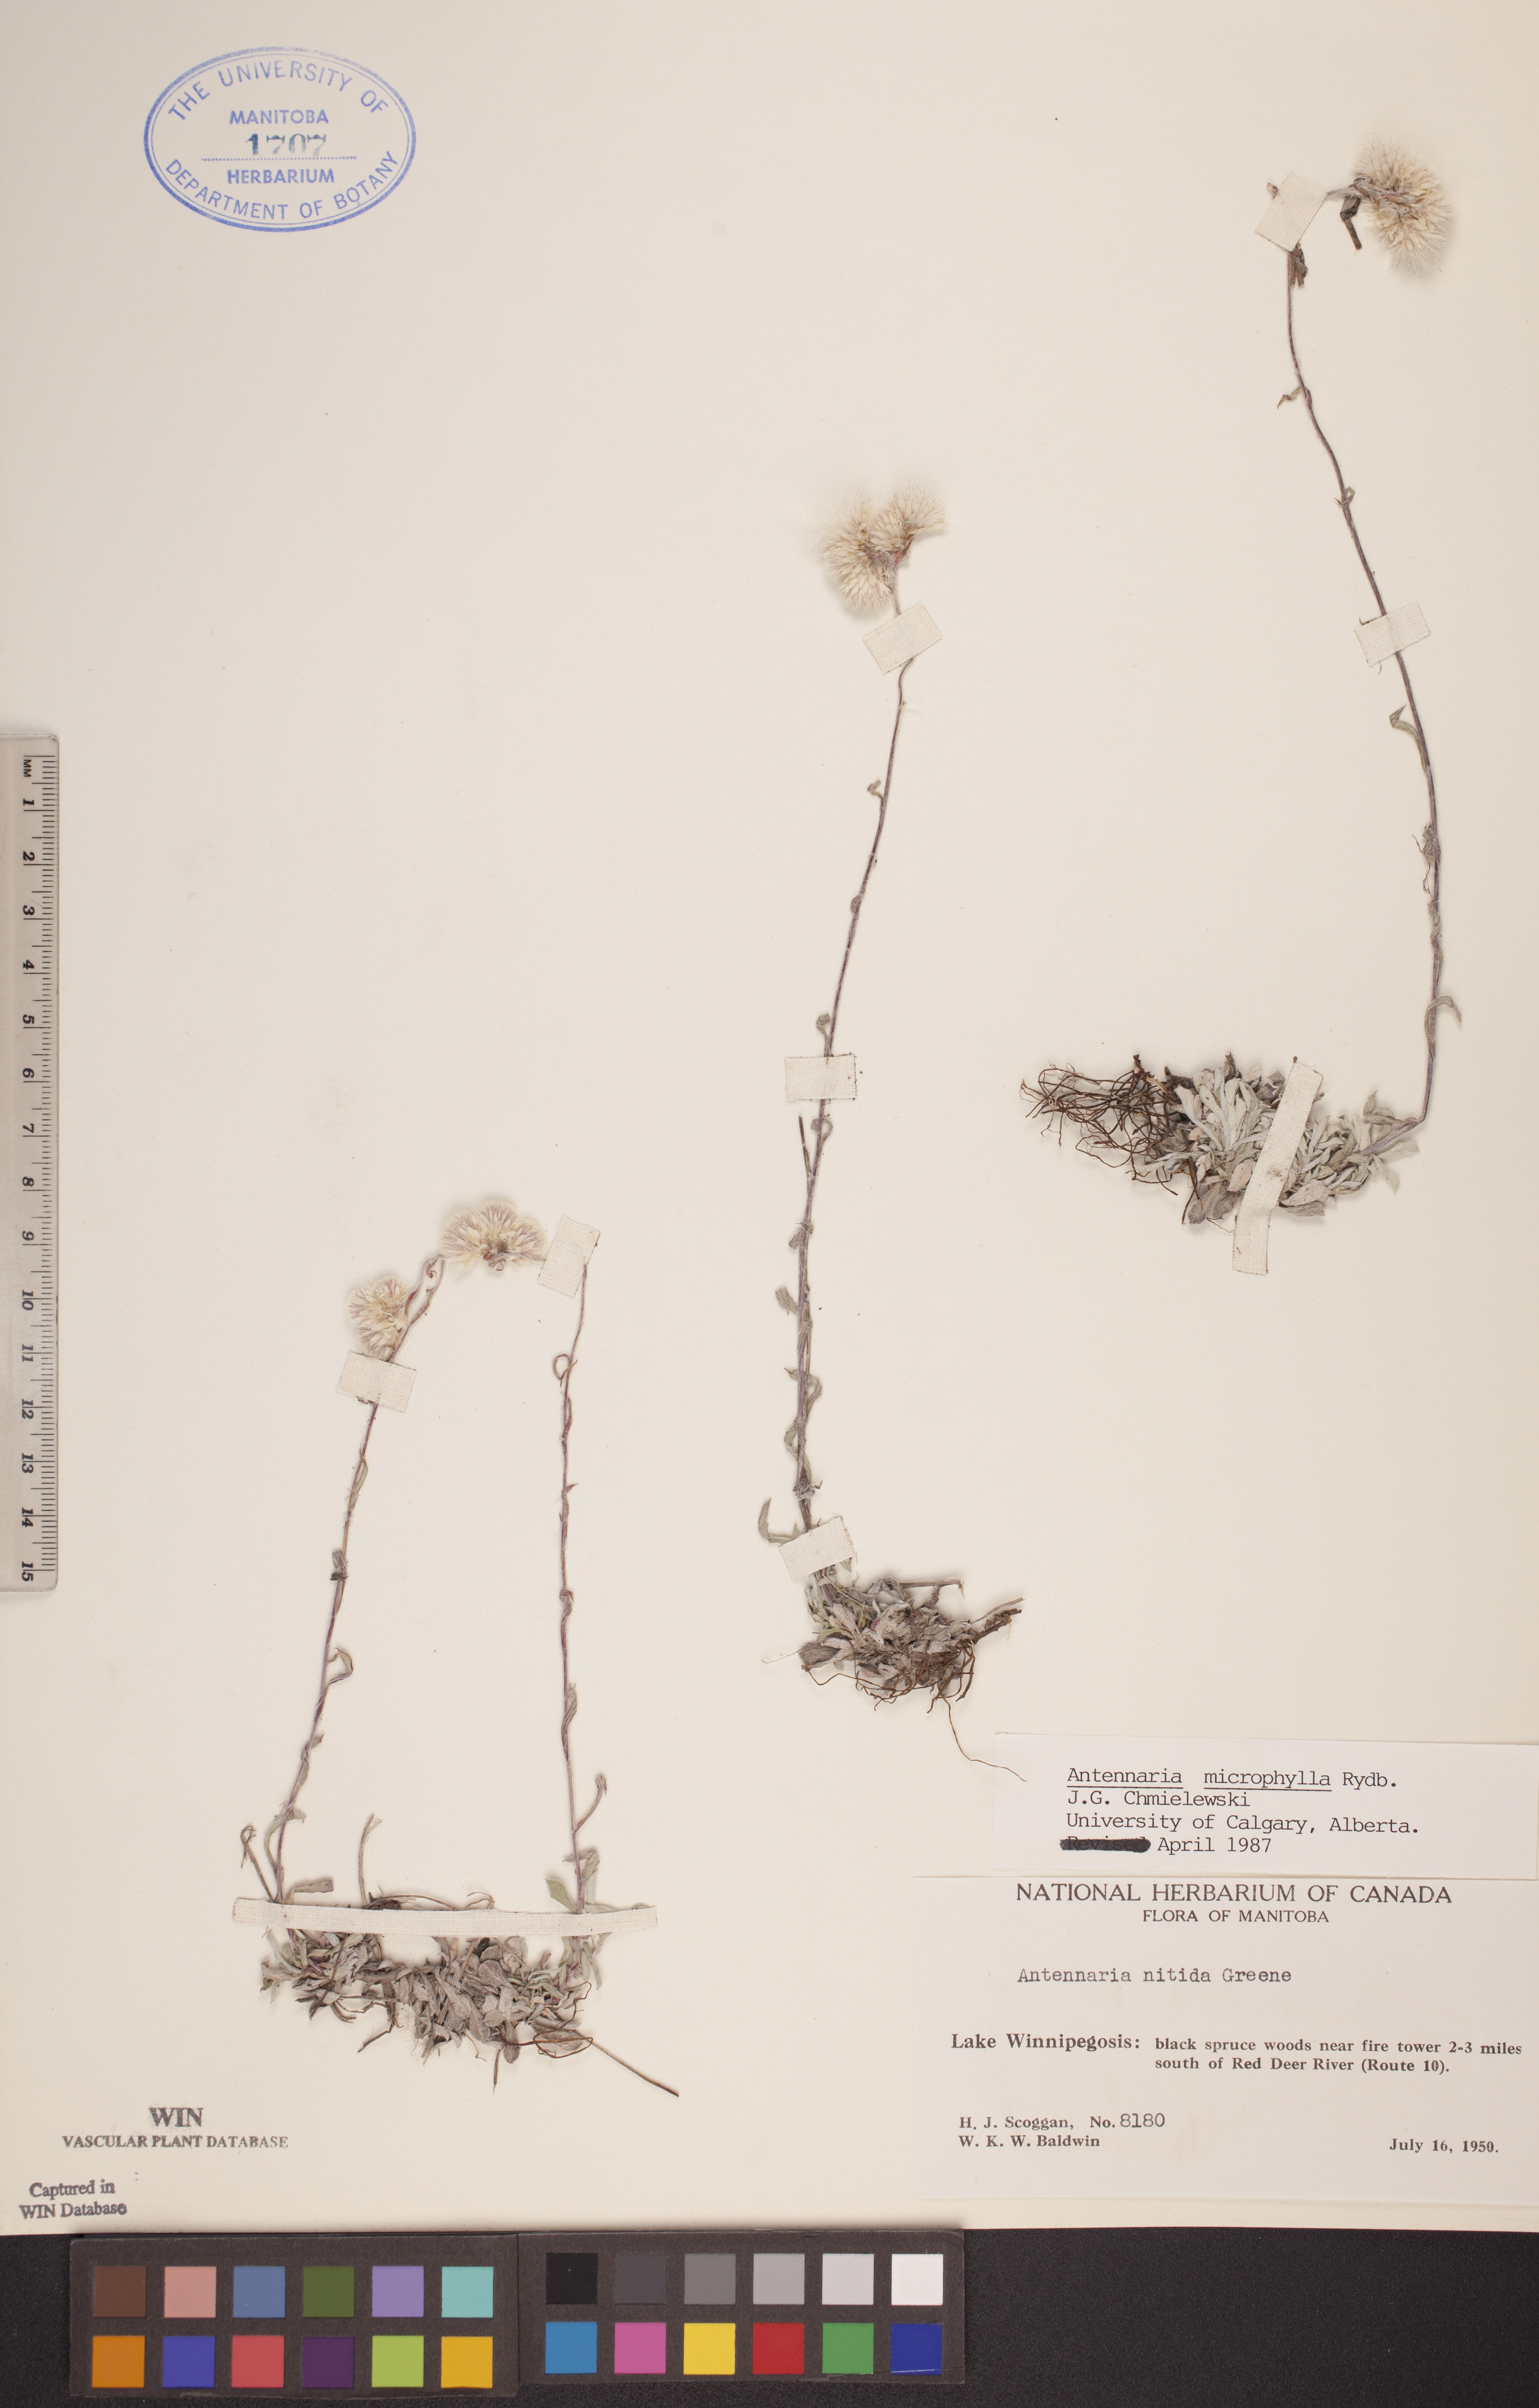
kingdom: Plantae
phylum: Tracheophyta
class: Magnoliopsida
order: Asterales
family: Asteraceae
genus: Antennaria
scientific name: Antennaria microphylla
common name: Littleleaf pussytoes
